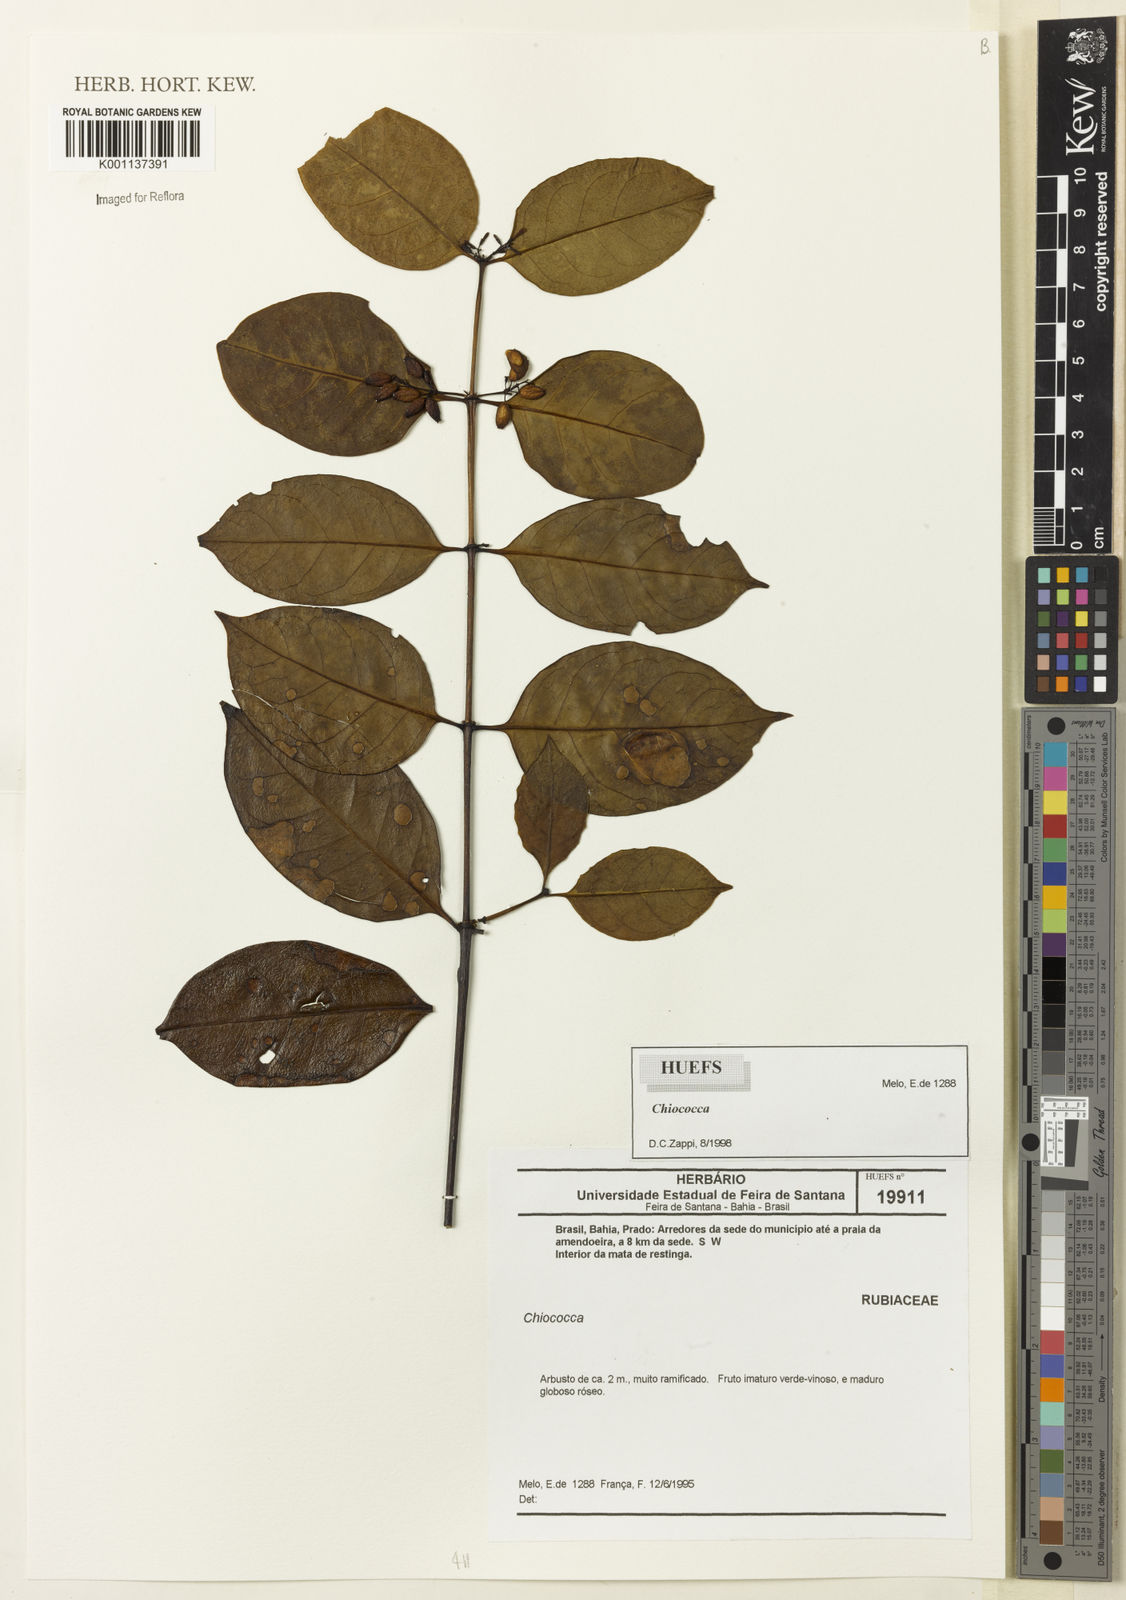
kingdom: Plantae
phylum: Tracheophyta
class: Magnoliopsida
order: Gentianales
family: Rubiaceae
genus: Chiococca
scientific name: Chiococca
